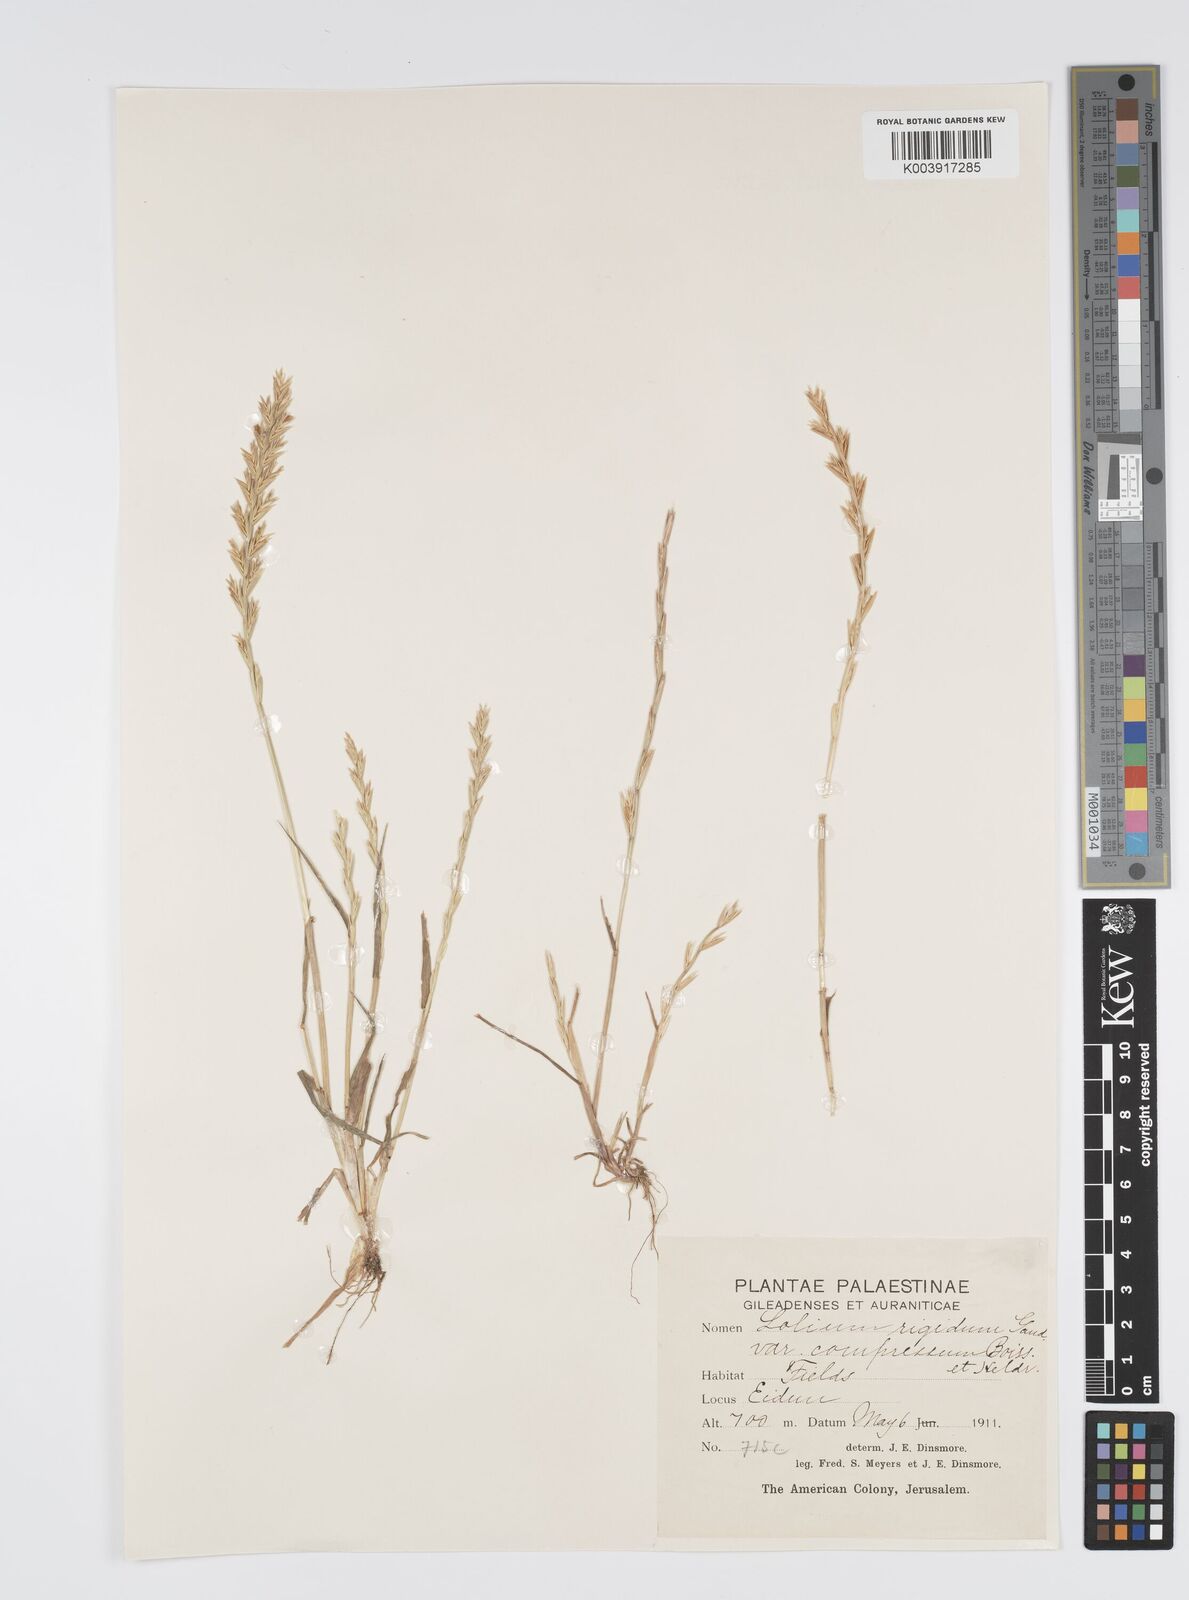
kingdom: Plantae
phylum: Tracheophyta
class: Liliopsida
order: Poales
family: Poaceae
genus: Lolium
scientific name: Lolium rigidum
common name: Wimmera ryegrass
